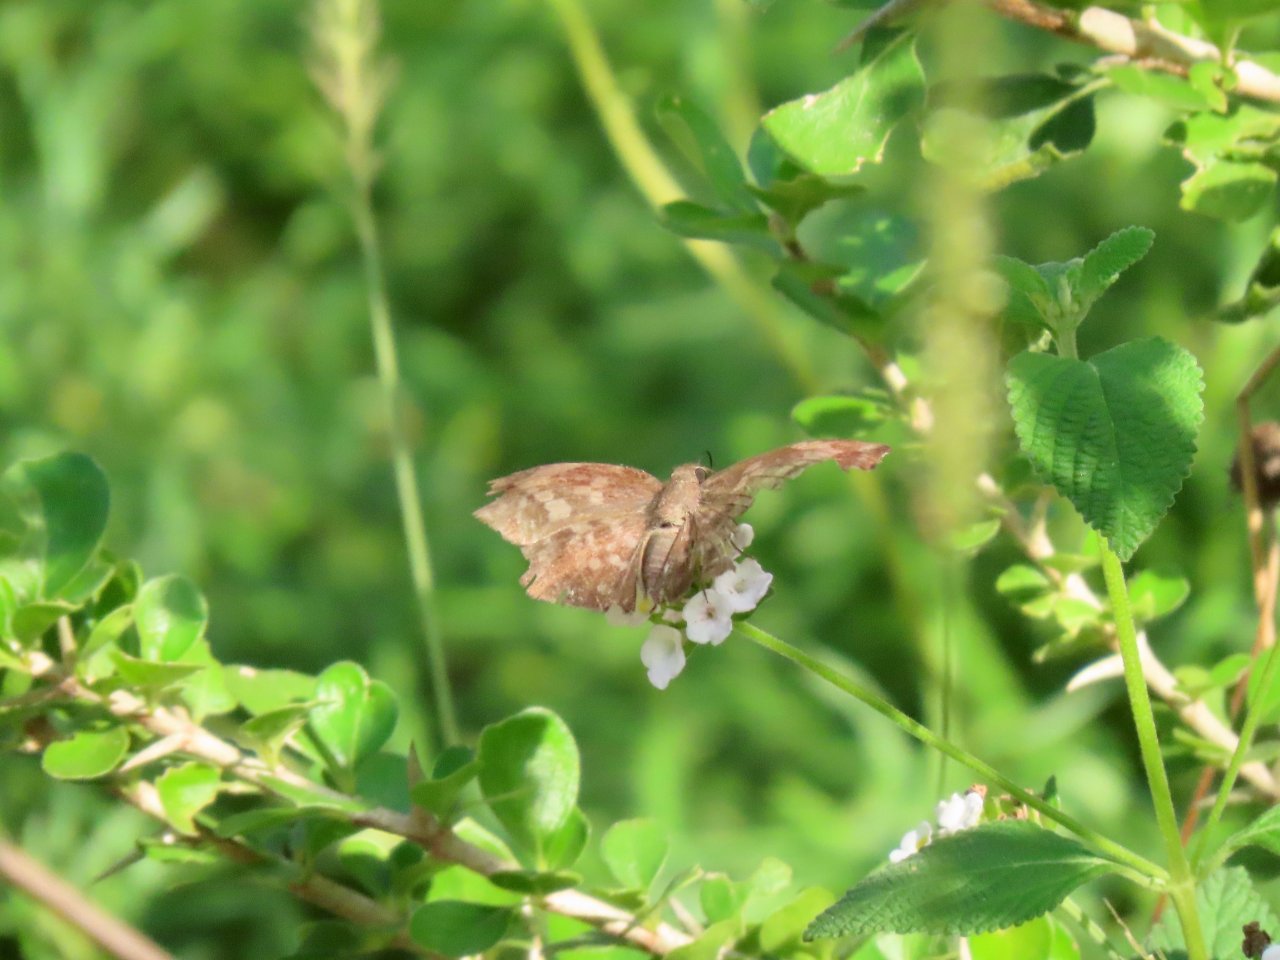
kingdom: Animalia
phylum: Arthropoda
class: Insecta
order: Lepidoptera
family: Hesperiidae
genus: Achlyodes
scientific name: Achlyodes thraso
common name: Sickle-winged Skipper
